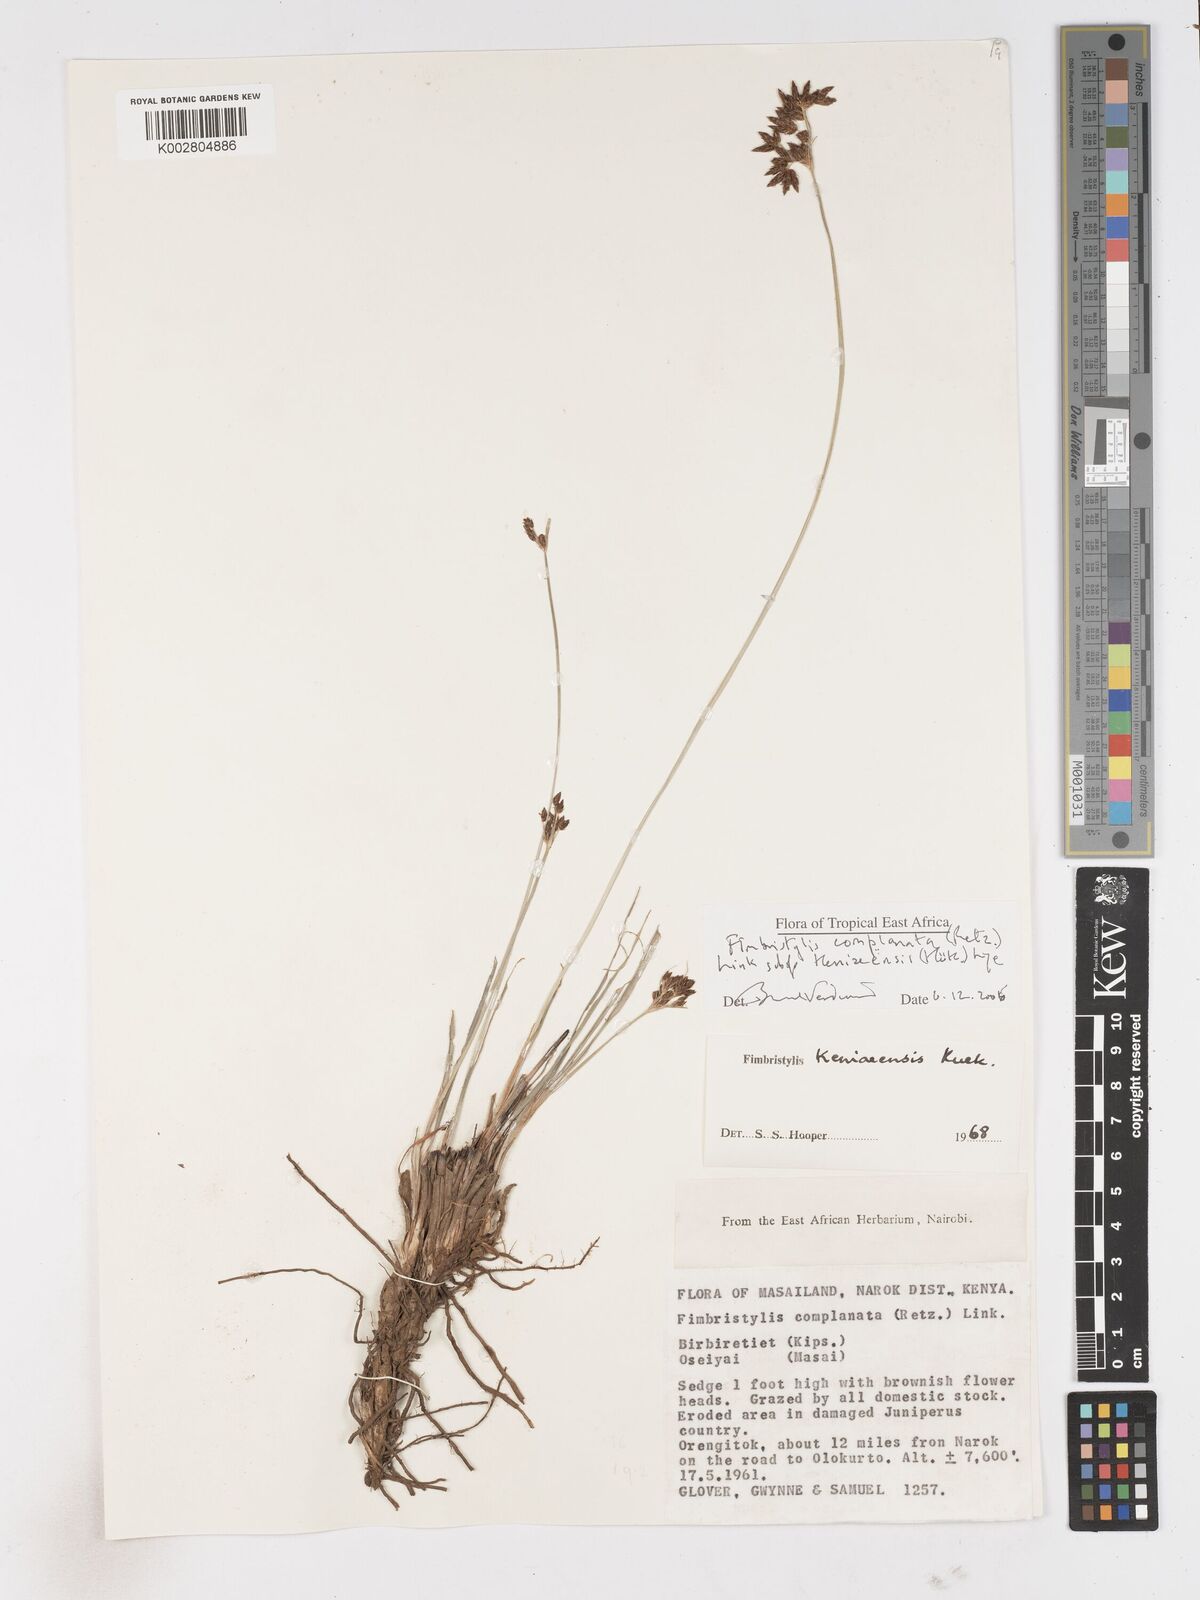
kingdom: Plantae
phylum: Tracheophyta
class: Liliopsida
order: Poales
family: Cyperaceae
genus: Fimbristylis
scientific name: Fimbristylis complanata
